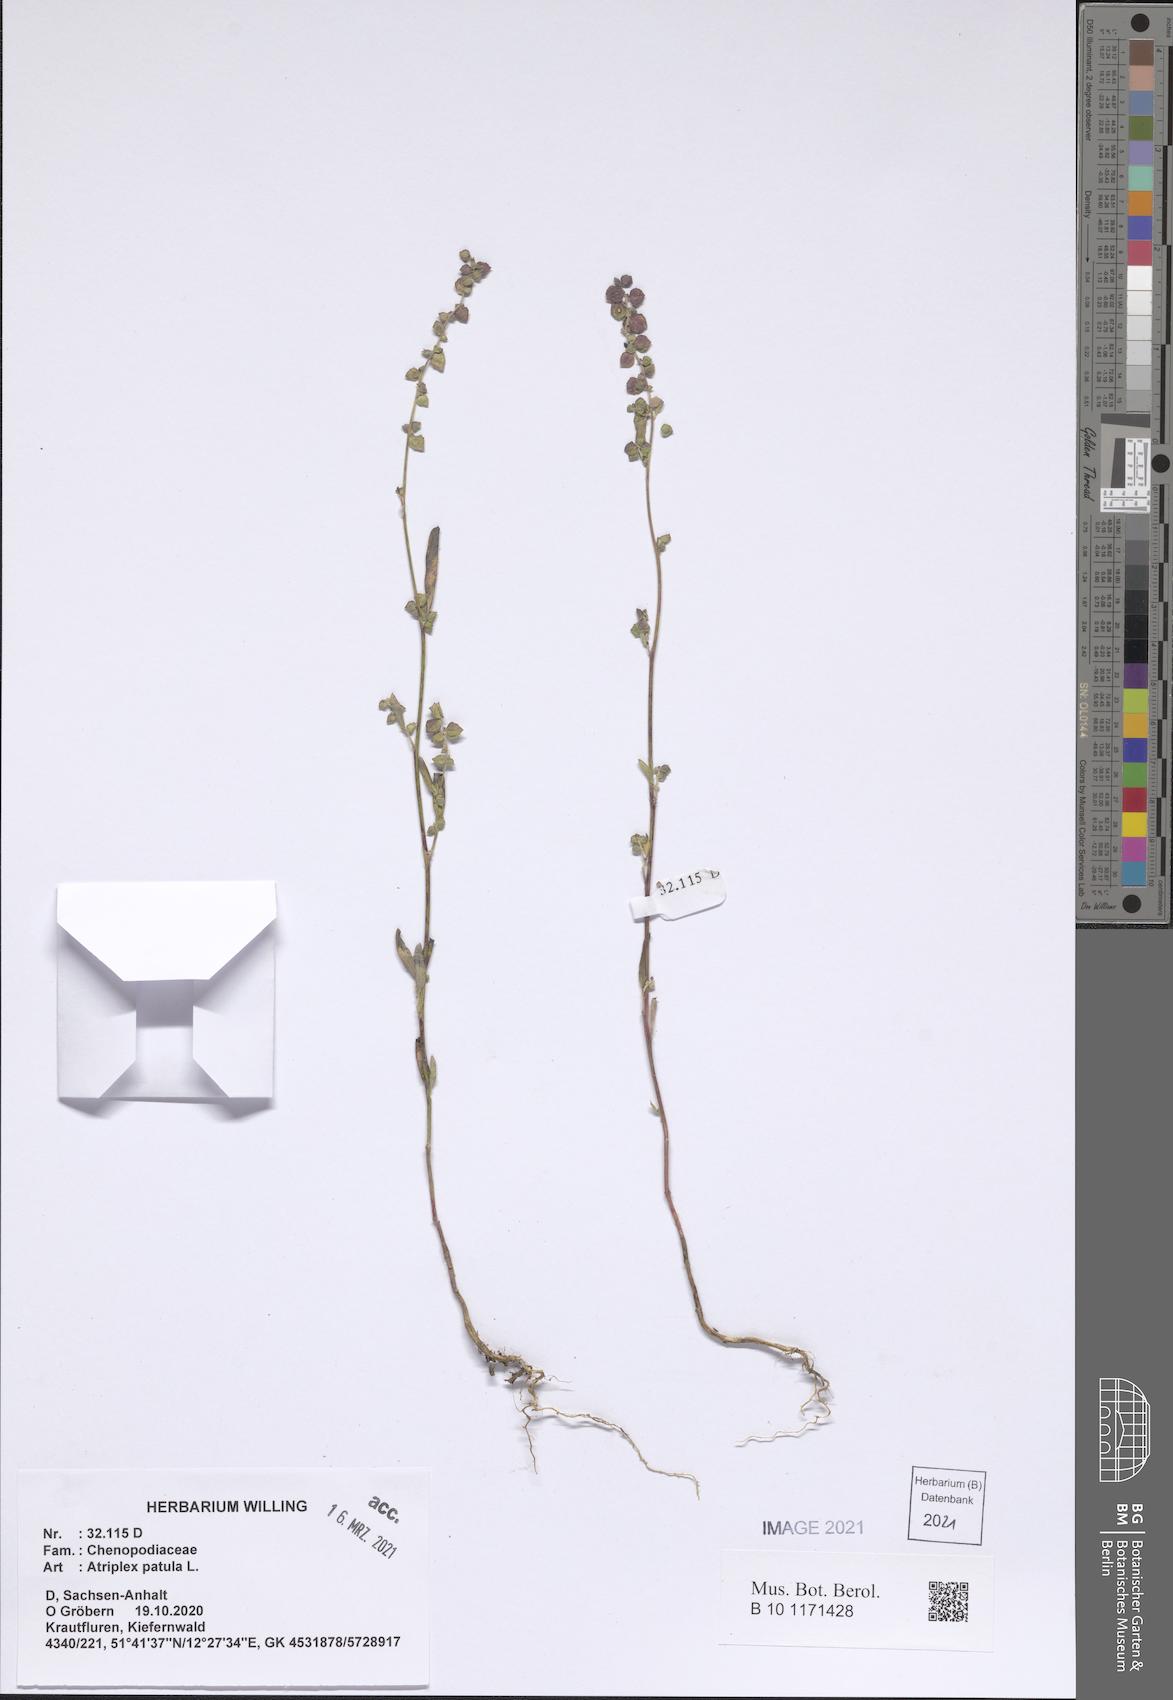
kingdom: Plantae
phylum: Tracheophyta
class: Magnoliopsida
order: Caryophyllales
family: Amaranthaceae
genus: Atriplex
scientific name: Atriplex patula
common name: Common orache
